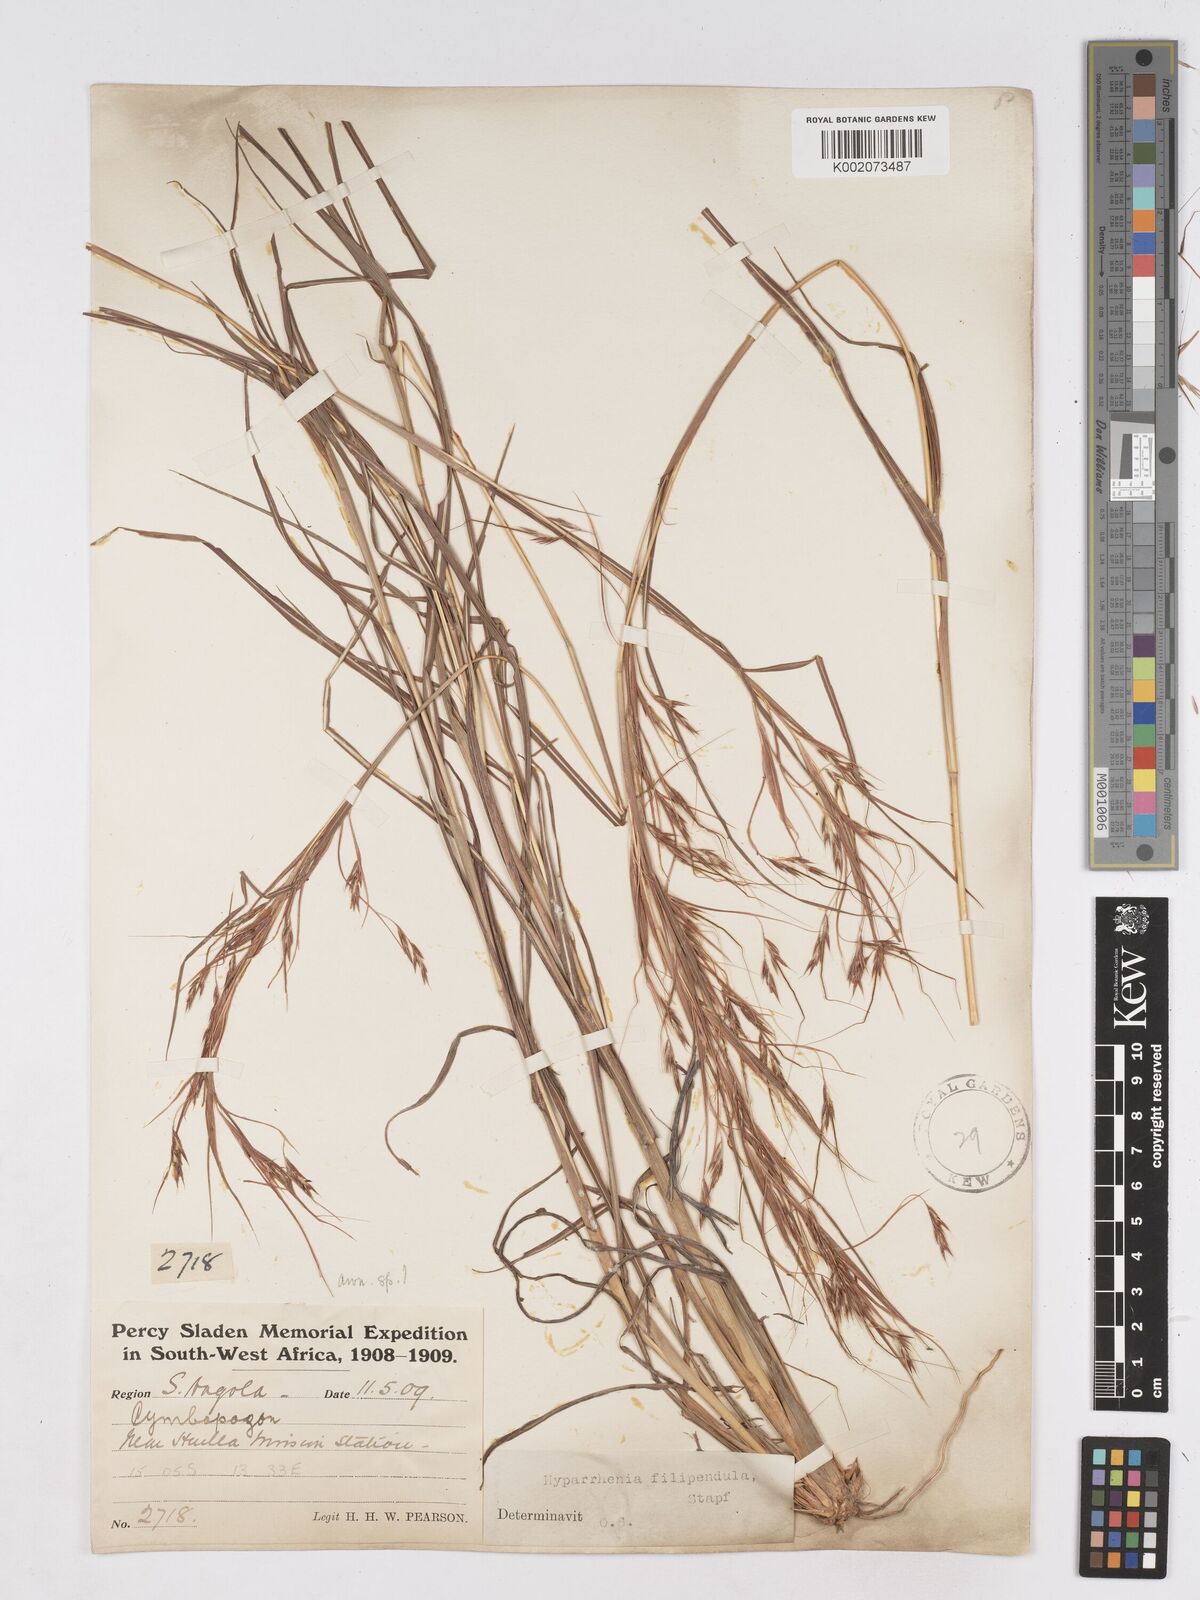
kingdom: Plantae
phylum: Tracheophyta
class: Liliopsida
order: Poales
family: Poaceae
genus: Hyparrhenia
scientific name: Hyparrhenia filipendula
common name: Tambookie grass
